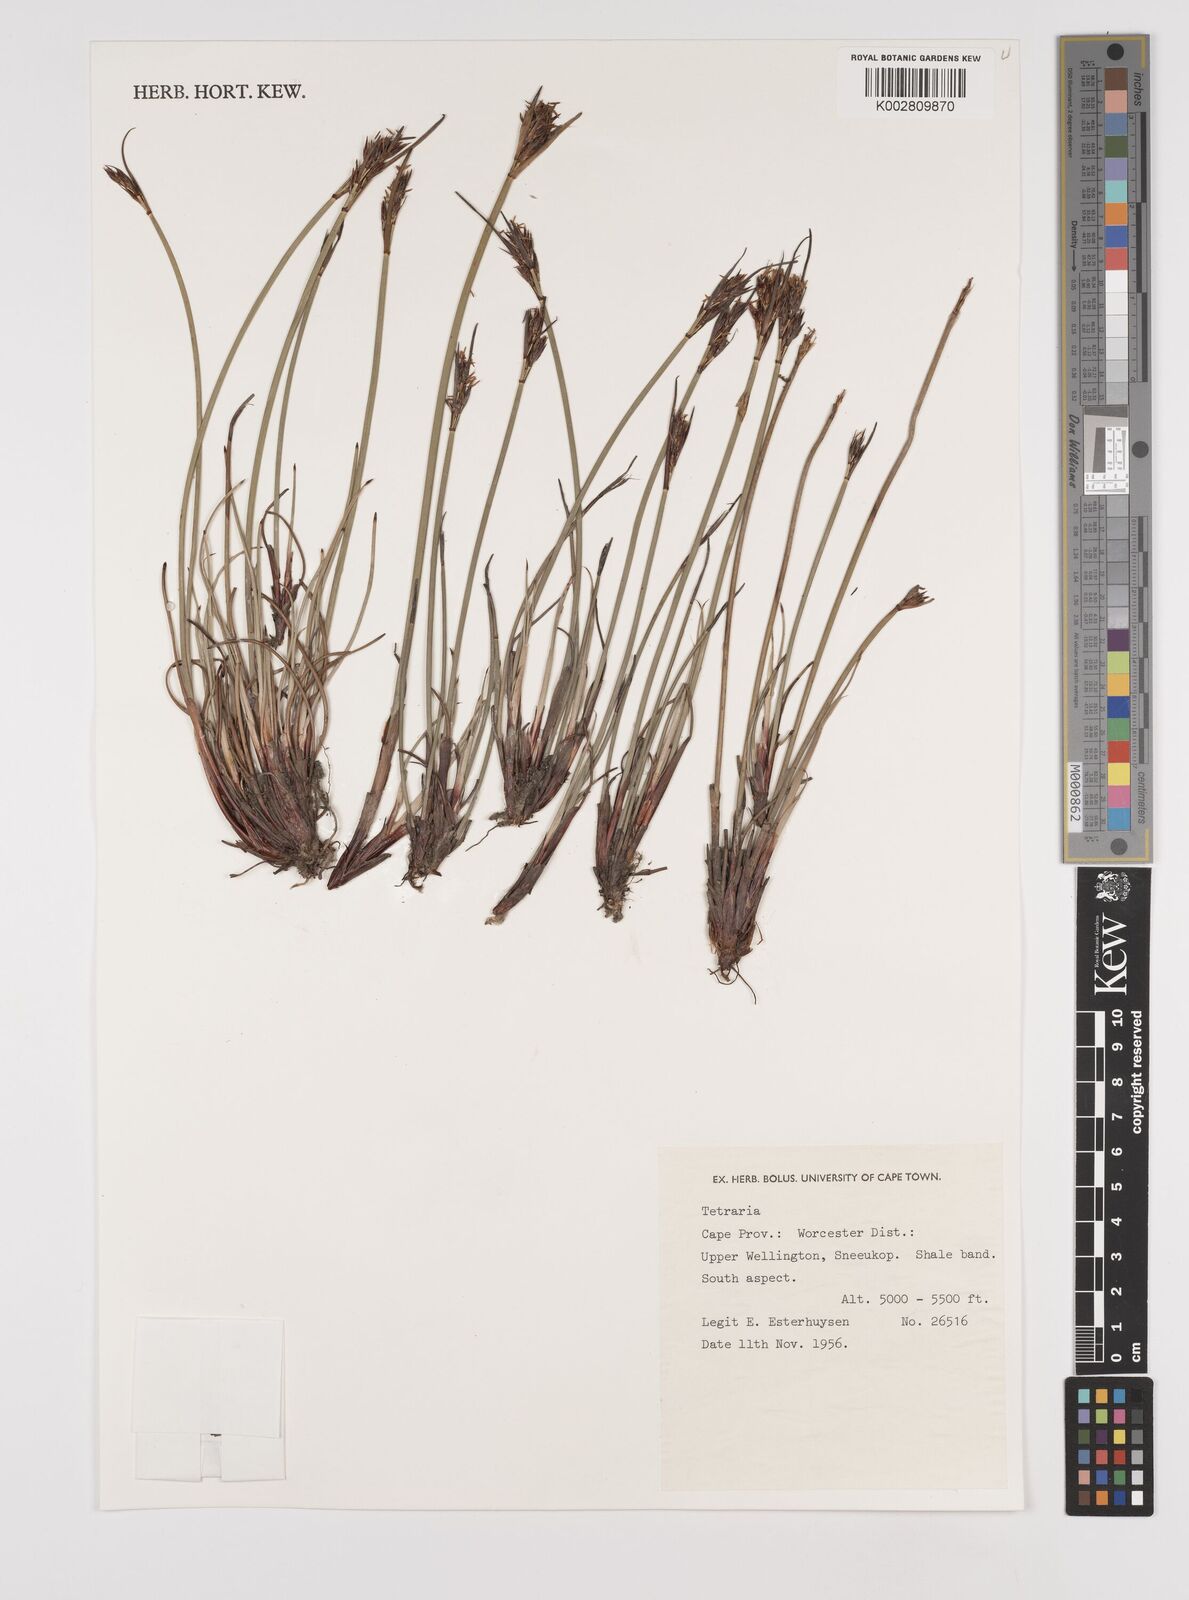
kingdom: Plantae
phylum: Tracheophyta
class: Liliopsida
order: Poales
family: Cyperaceae
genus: Schoenus
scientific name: Schoenus
